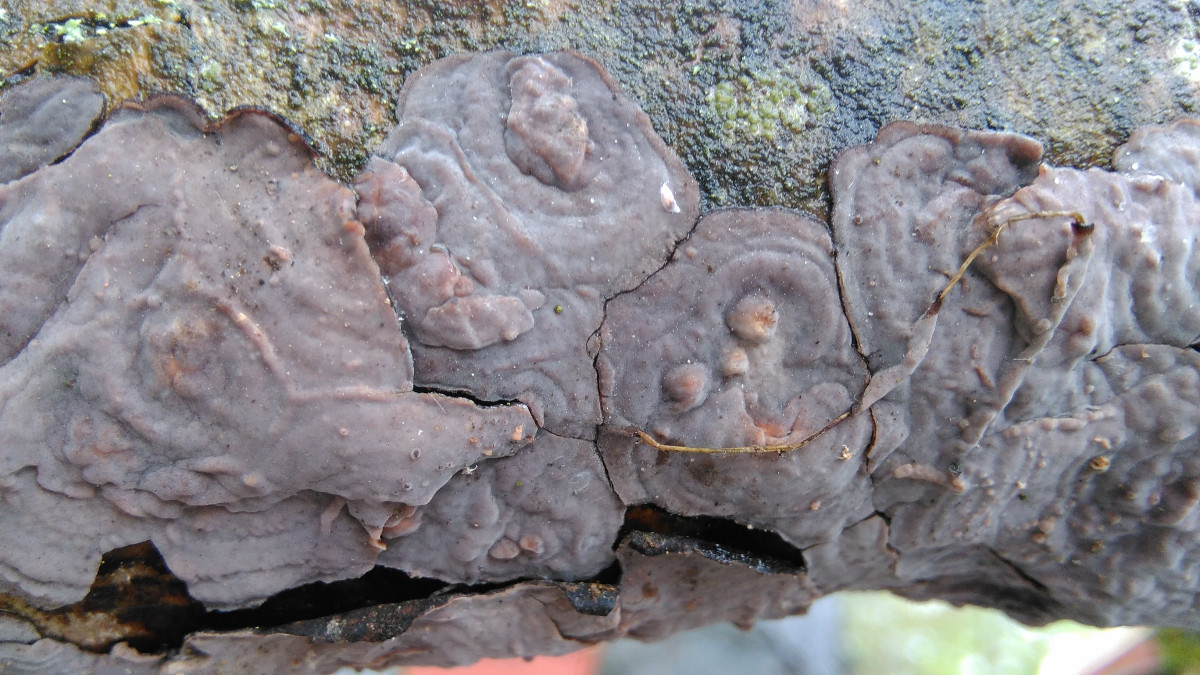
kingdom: Fungi
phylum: Basidiomycota
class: Agaricomycetes
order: Russulales
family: Peniophoraceae
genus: Peniophora
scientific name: Peniophora quercina
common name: ege-voksskind
